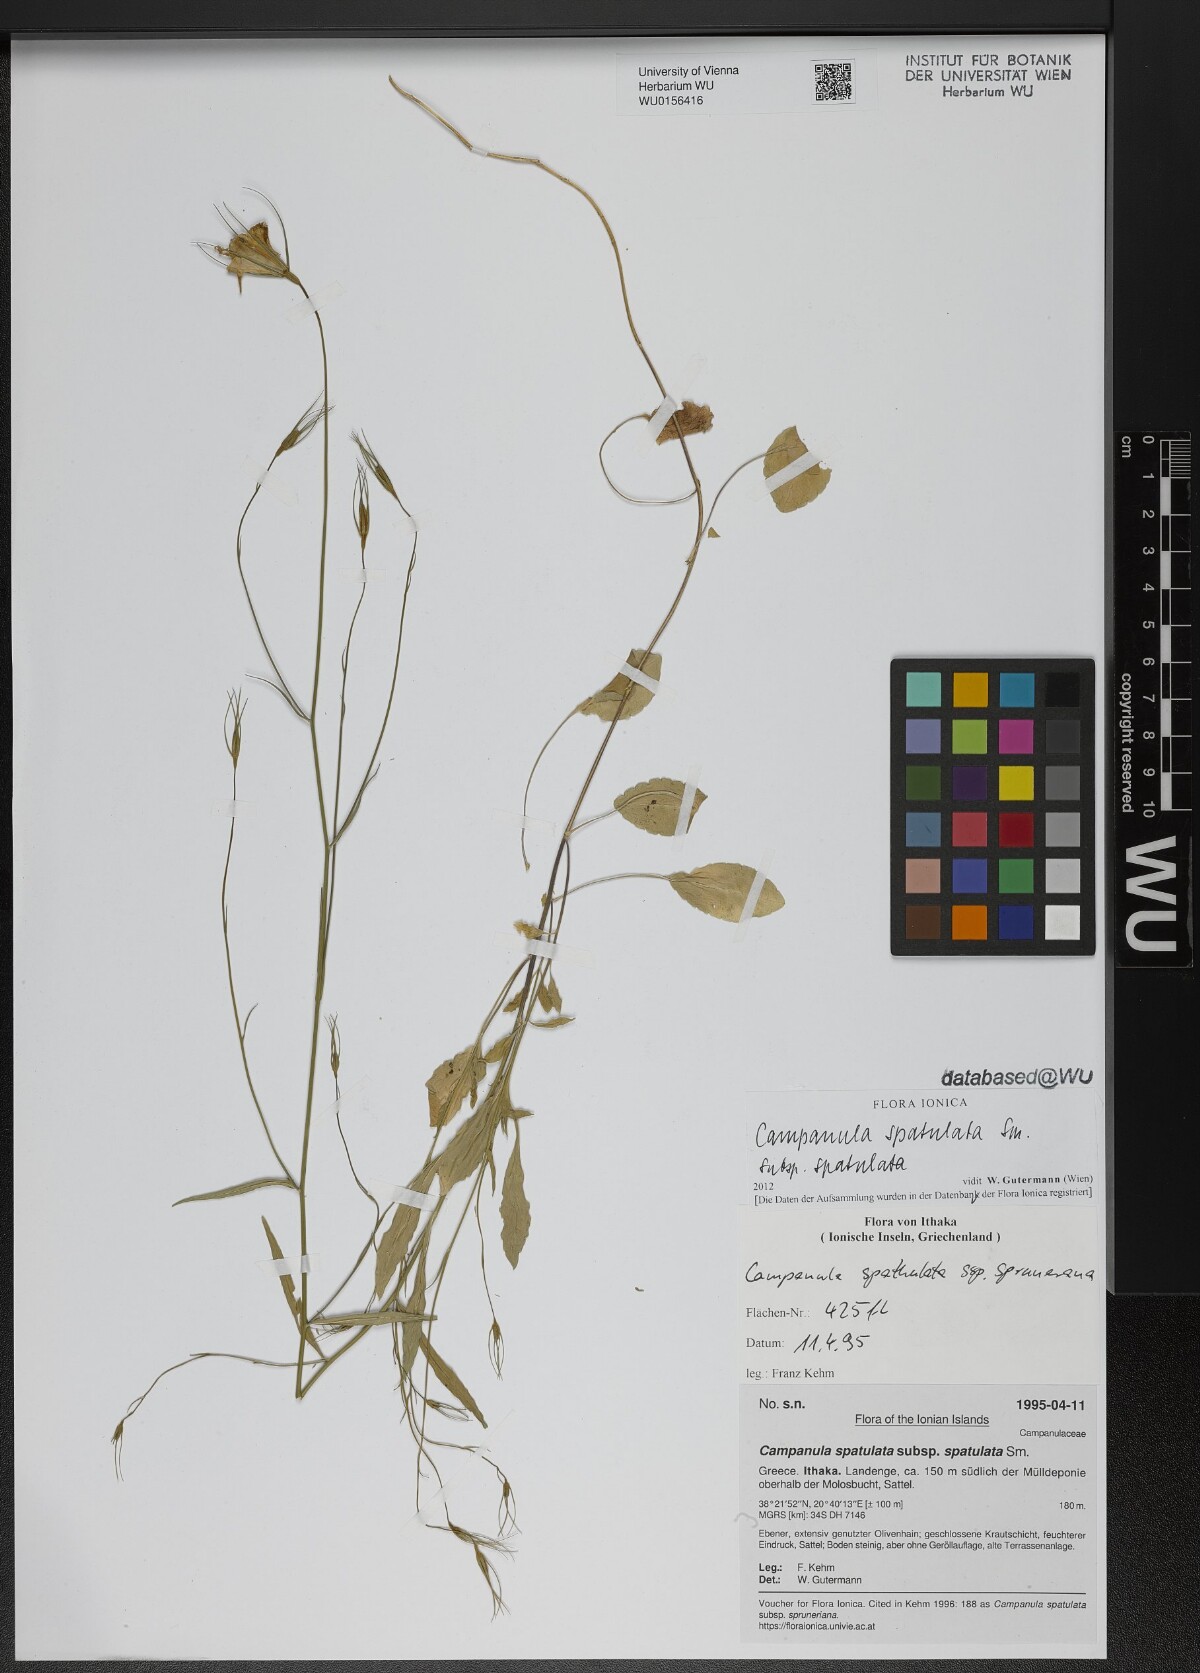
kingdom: Plantae
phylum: Tracheophyta
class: Magnoliopsida
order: Asterales
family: Campanulaceae
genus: Campanula
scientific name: Campanula spatulata
